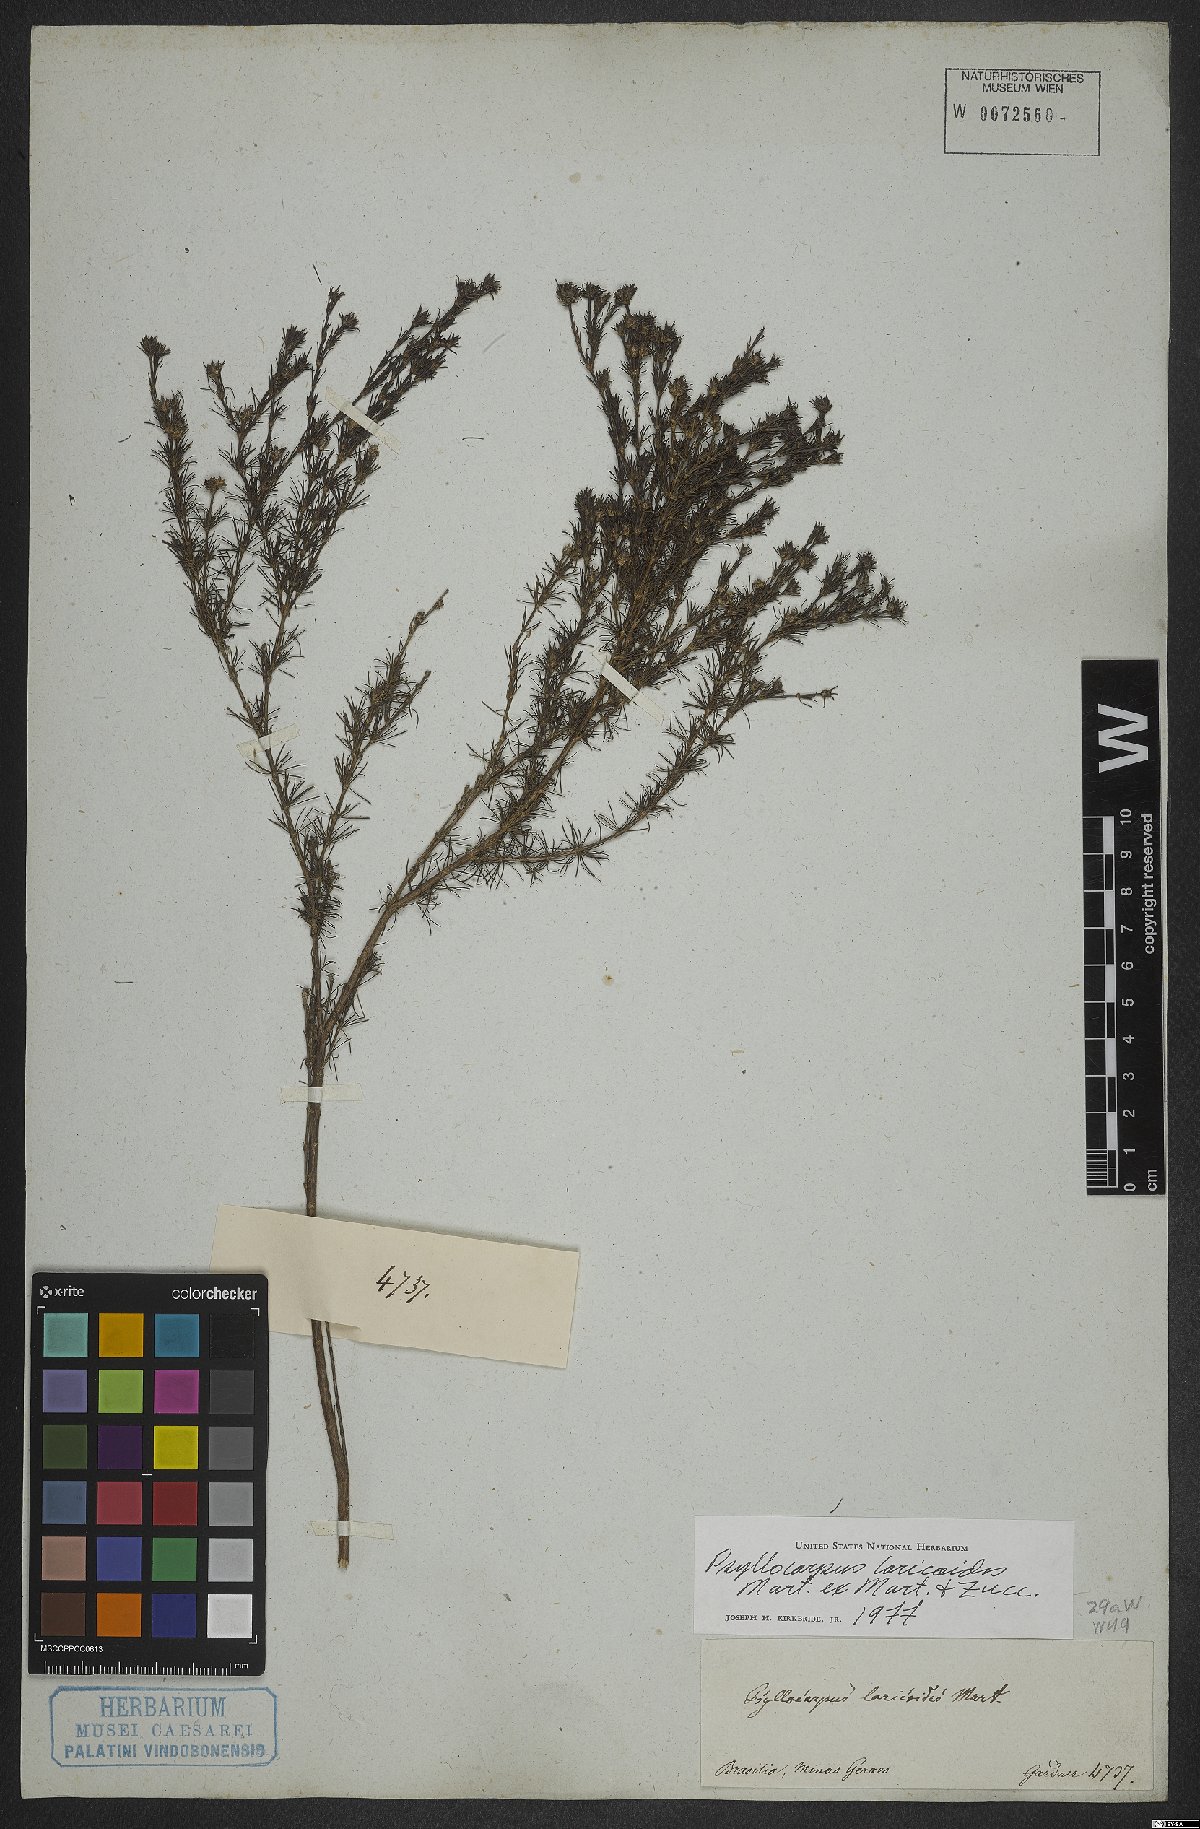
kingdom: Plantae
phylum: Tracheophyta
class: Magnoliopsida
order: Gentianales
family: Rubiaceae
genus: Psyllocarpus
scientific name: Psyllocarpus laricoides
